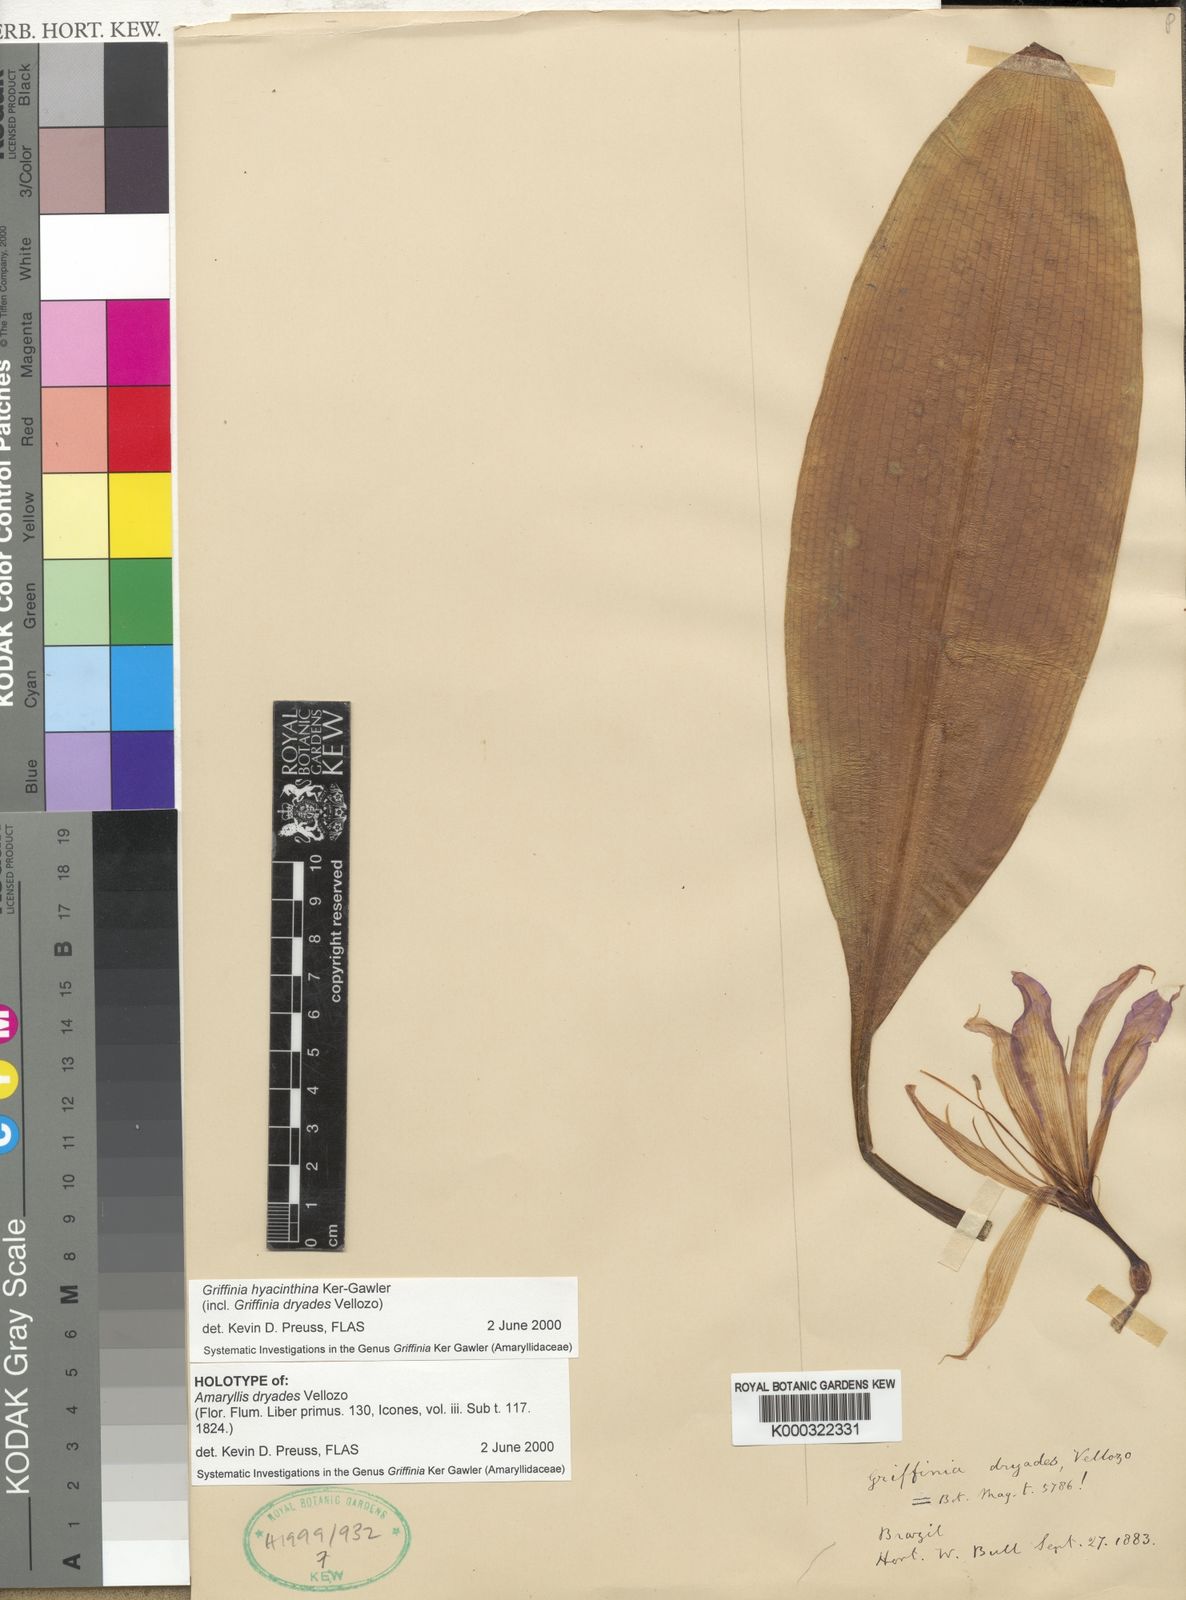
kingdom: Plantae
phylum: Tracheophyta
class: Liliopsida
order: Asparagales
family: Amaryllidaceae
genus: Griffinia
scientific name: Griffinia hyacinthina
